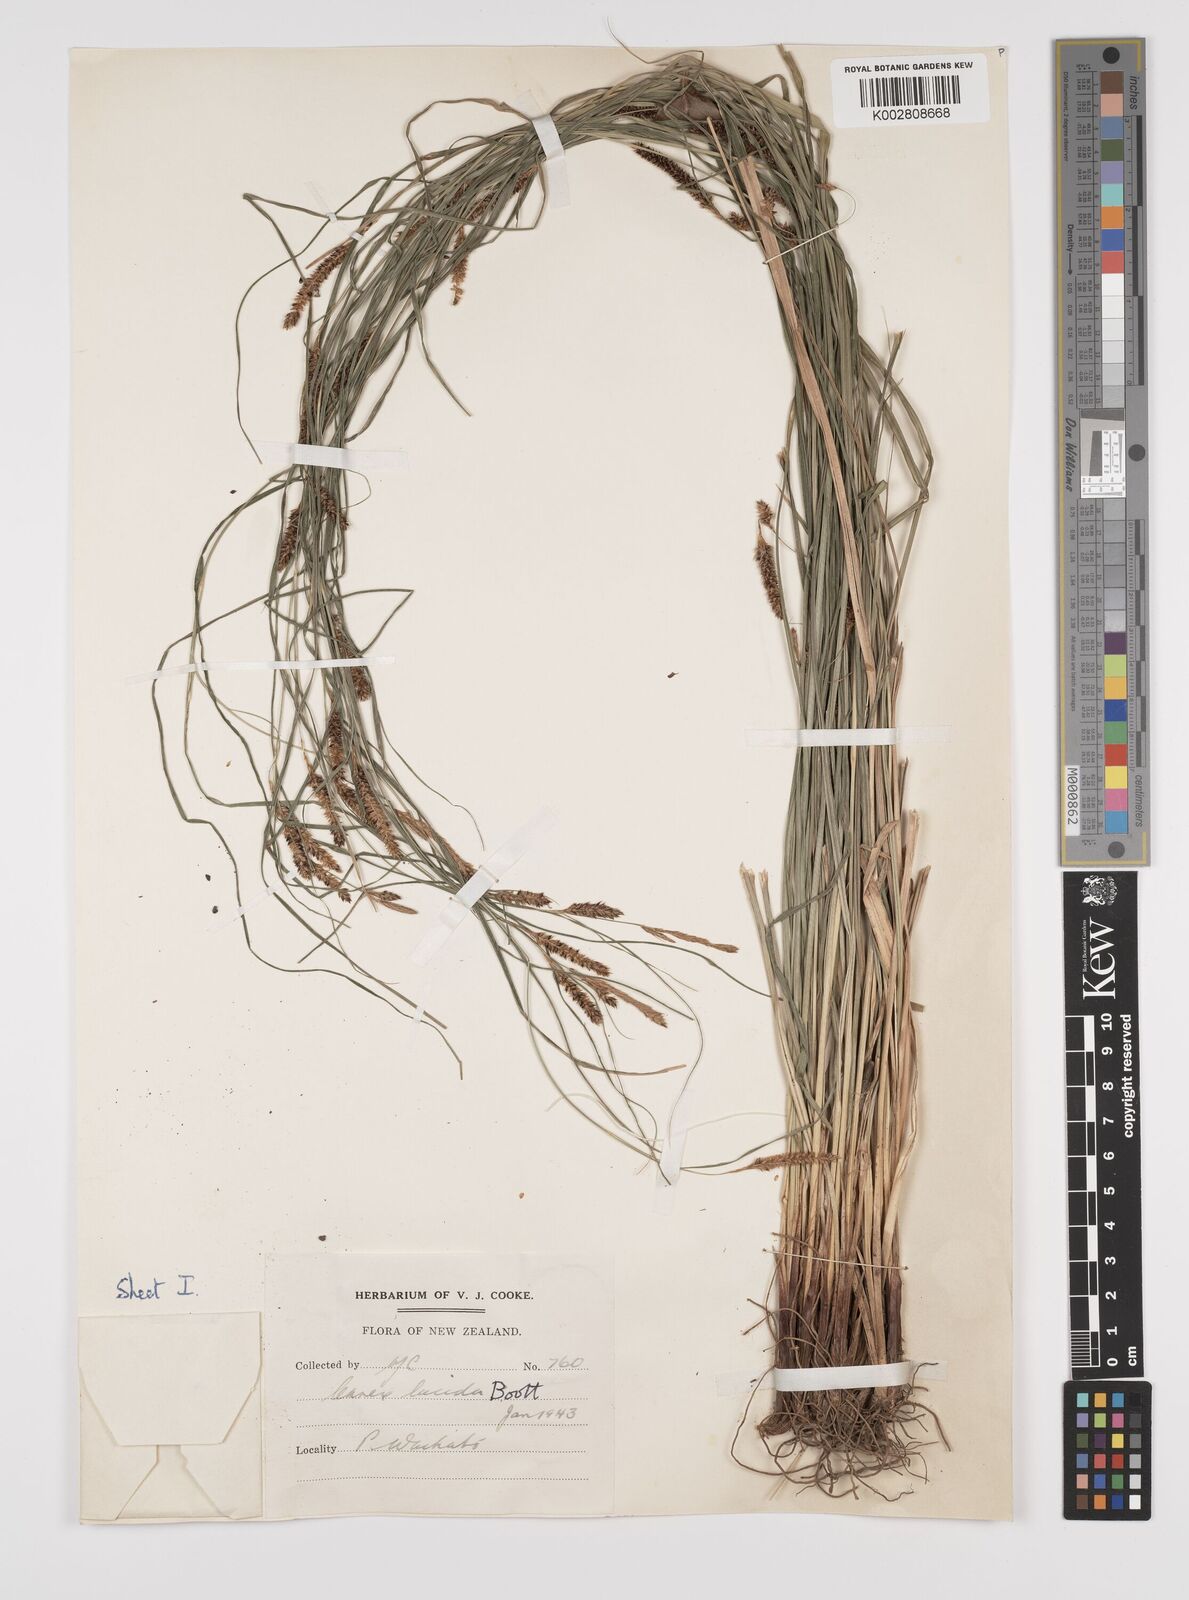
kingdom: Plantae
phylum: Tracheophyta
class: Liliopsida
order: Poales
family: Cyperaceae
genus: Carex
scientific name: Carex flagellifera
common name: Glen murray tussock
